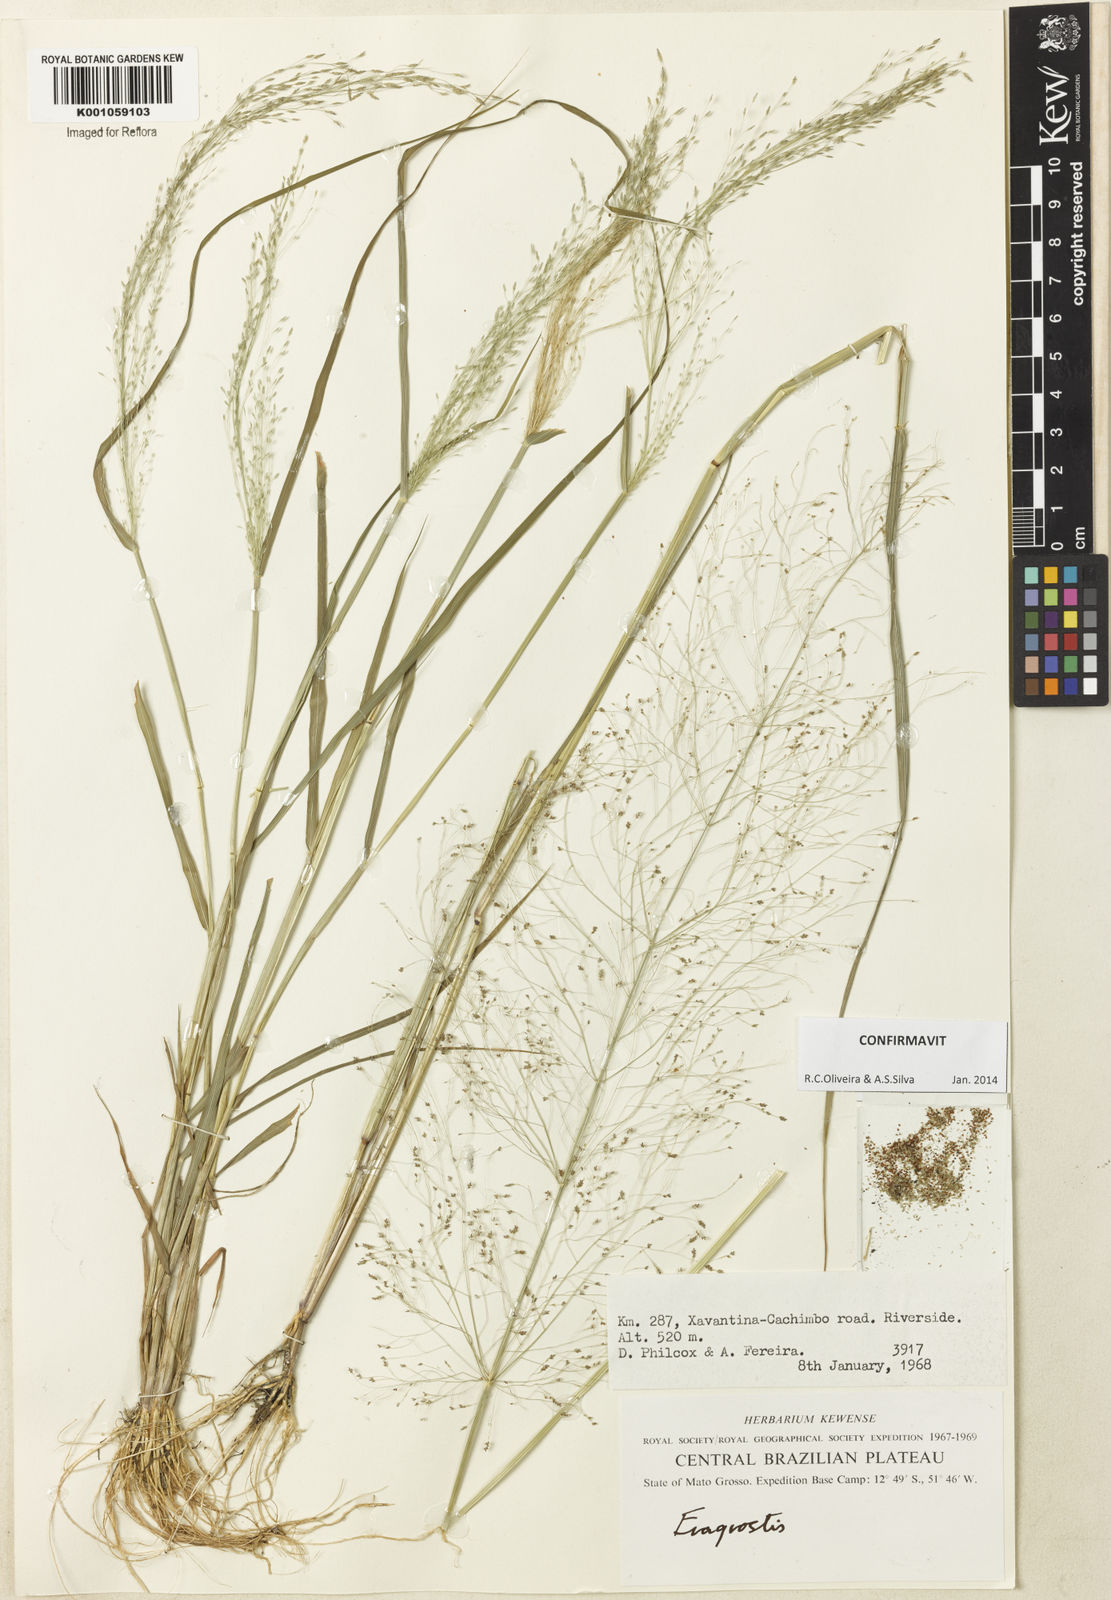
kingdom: Plantae
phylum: Tracheophyta
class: Liliopsida
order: Poales
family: Poaceae
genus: Eragrostis
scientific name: Eragrostis pilosa
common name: Indian lovegrass
